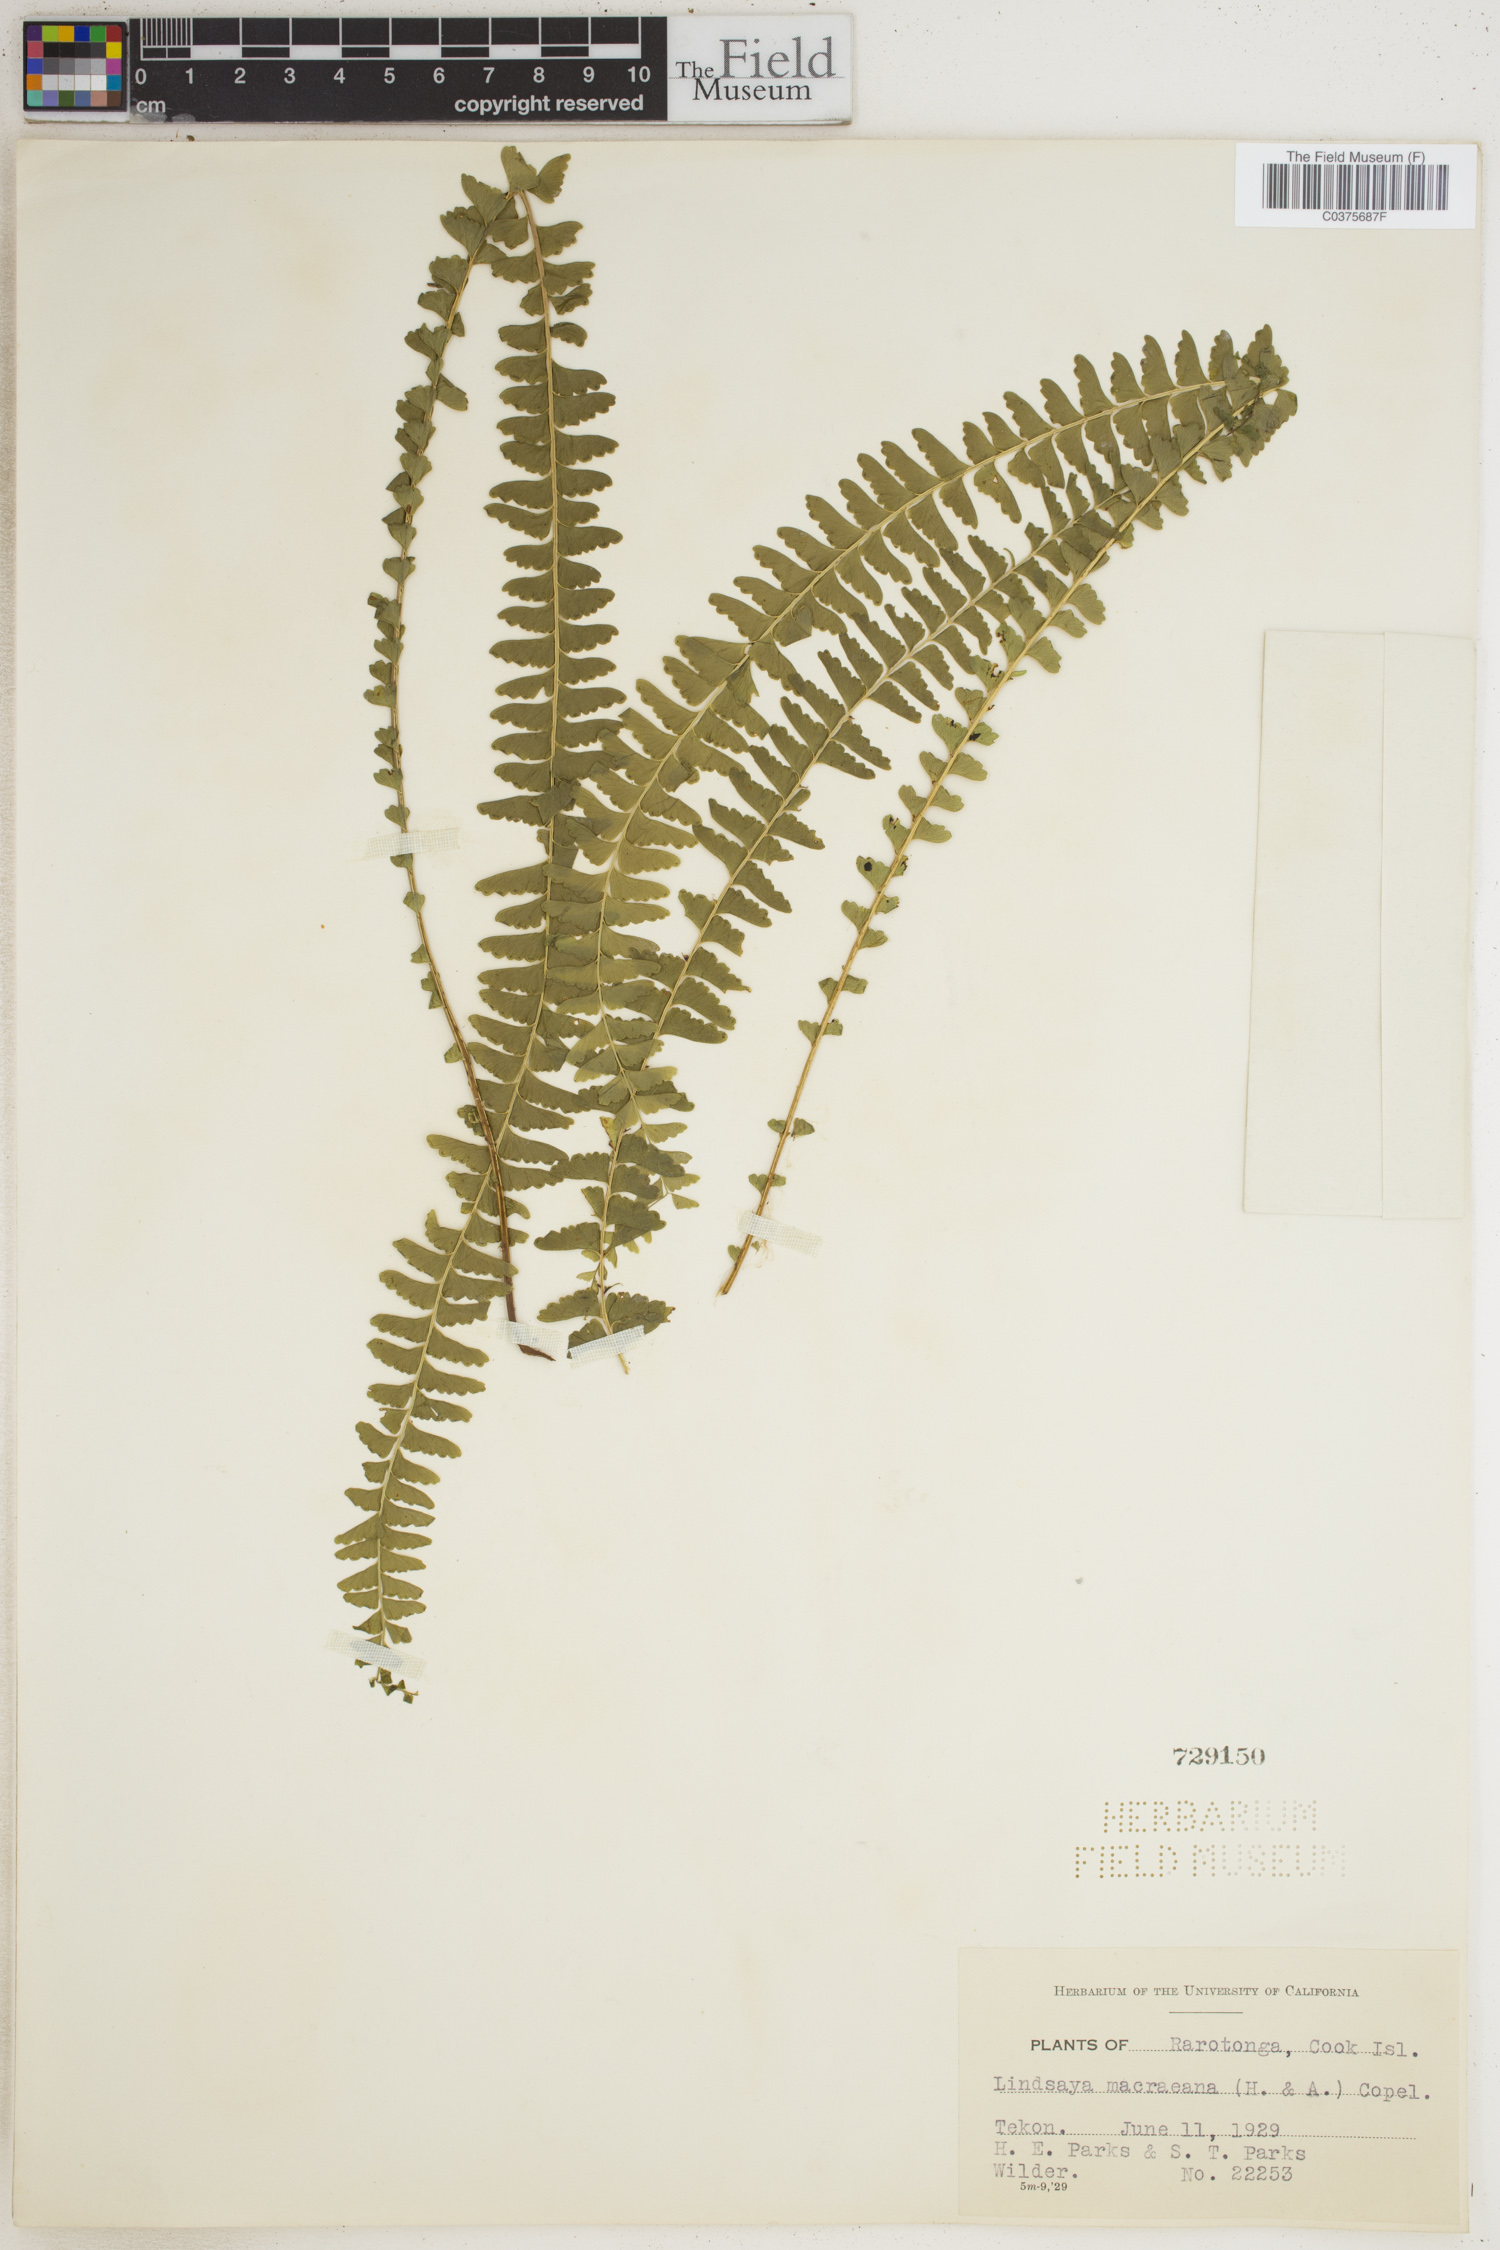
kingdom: Plantae
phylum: Tracheophyta
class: Polypodiopsida
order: Polypodiales
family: Lindsaeaceae
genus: Lindsaea
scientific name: Lindsaea macraeana
